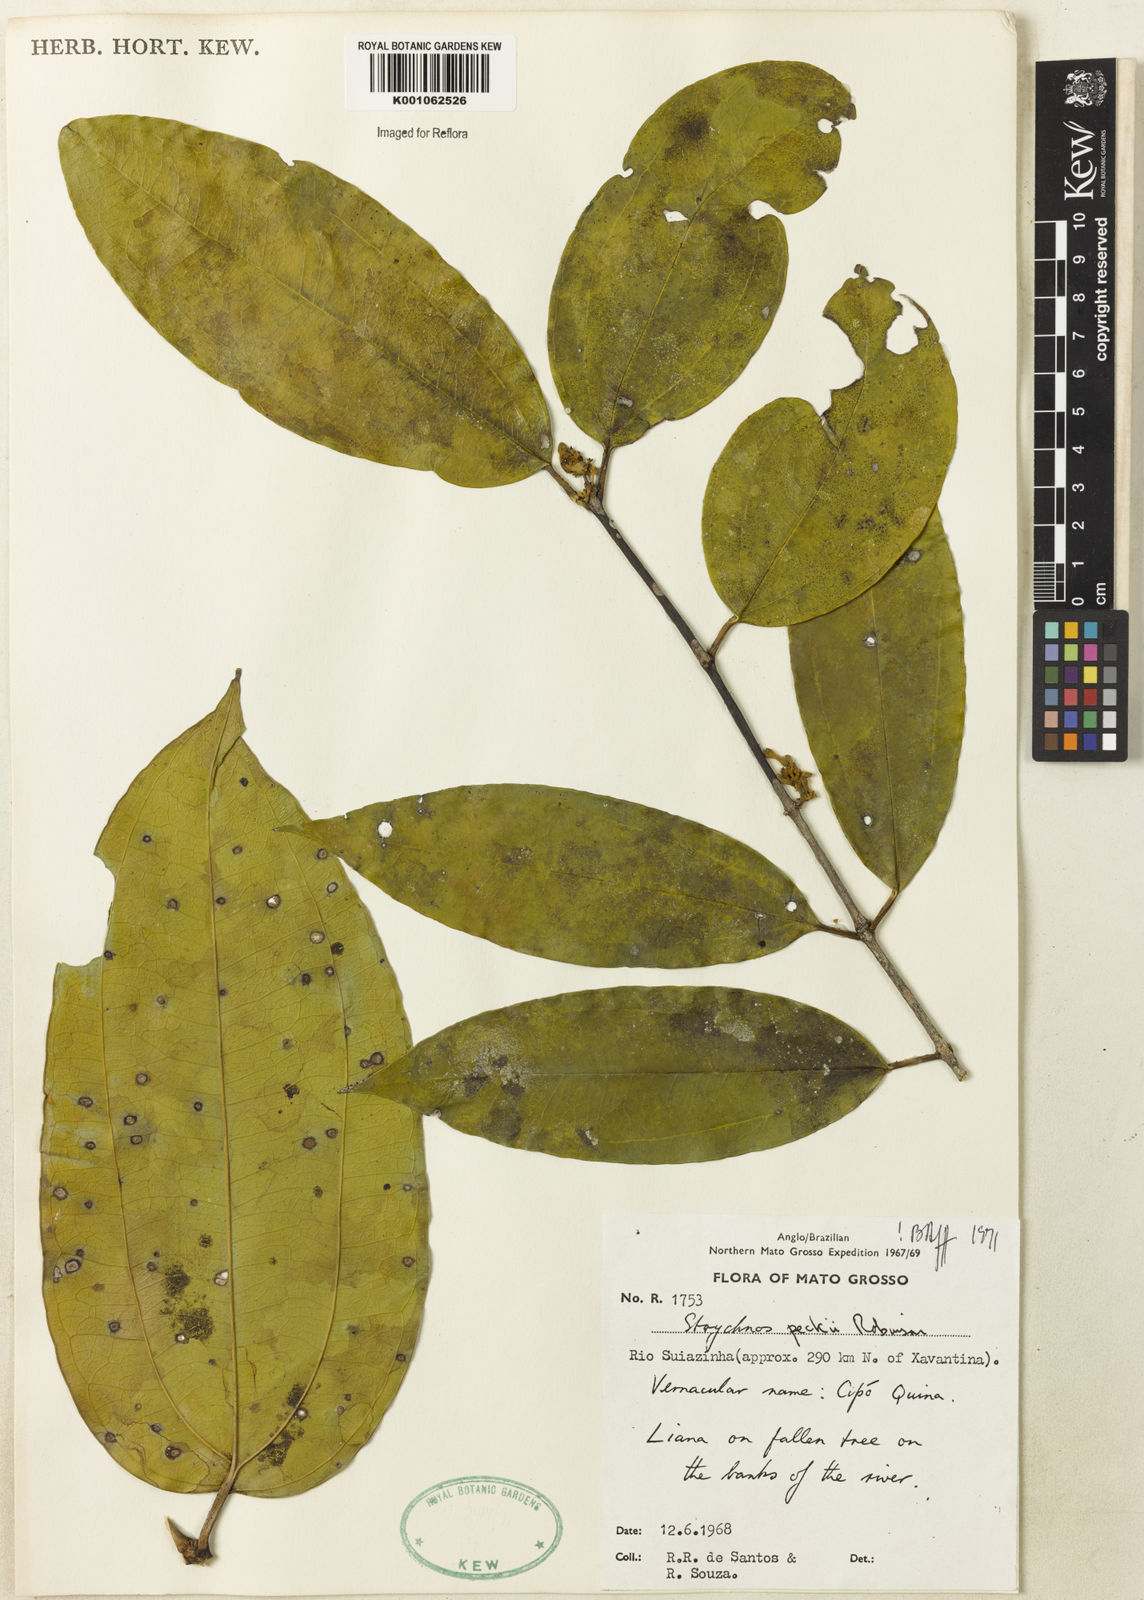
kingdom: Plantae
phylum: Tracheophyta
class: Magnoliopsida
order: Gentianales
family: Loganiaceae
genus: Strychnos
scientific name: Strychnos peckii
